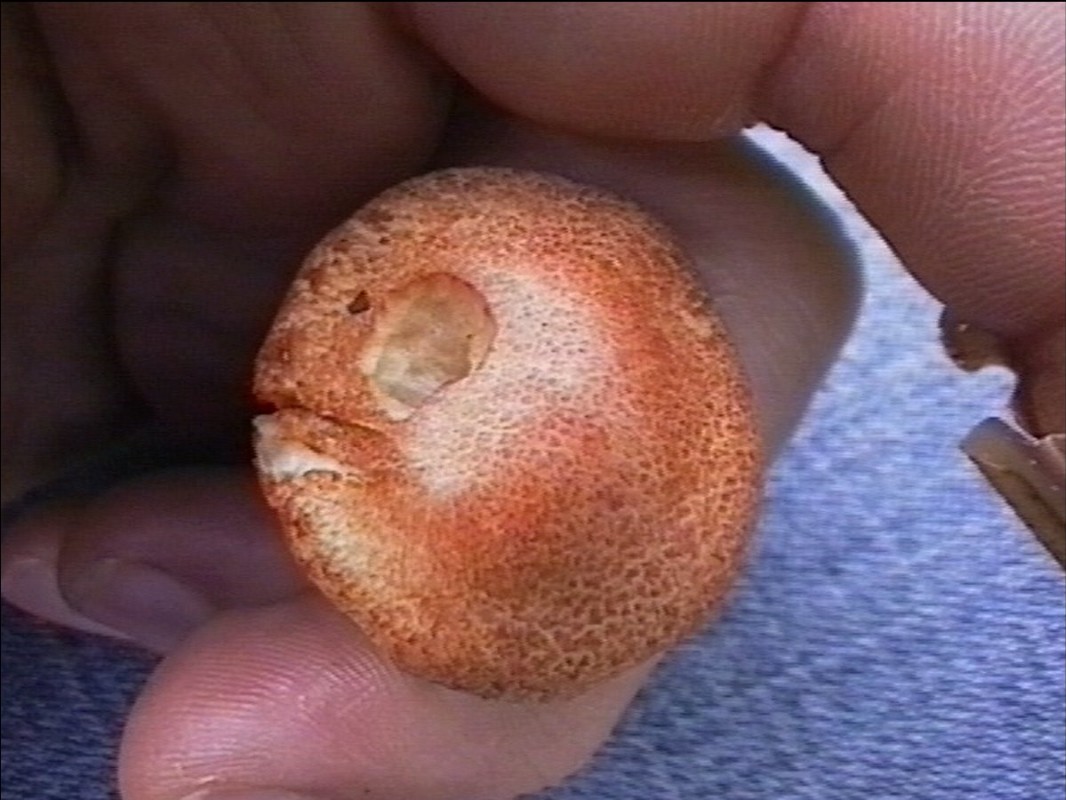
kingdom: Fungi
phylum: Basidiomycota
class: Agaricomycetes
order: Agaricales
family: Cortinariaceae
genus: Cortinarius
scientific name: Cortinarius bolaris
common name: cinnoberskællet slørhat
